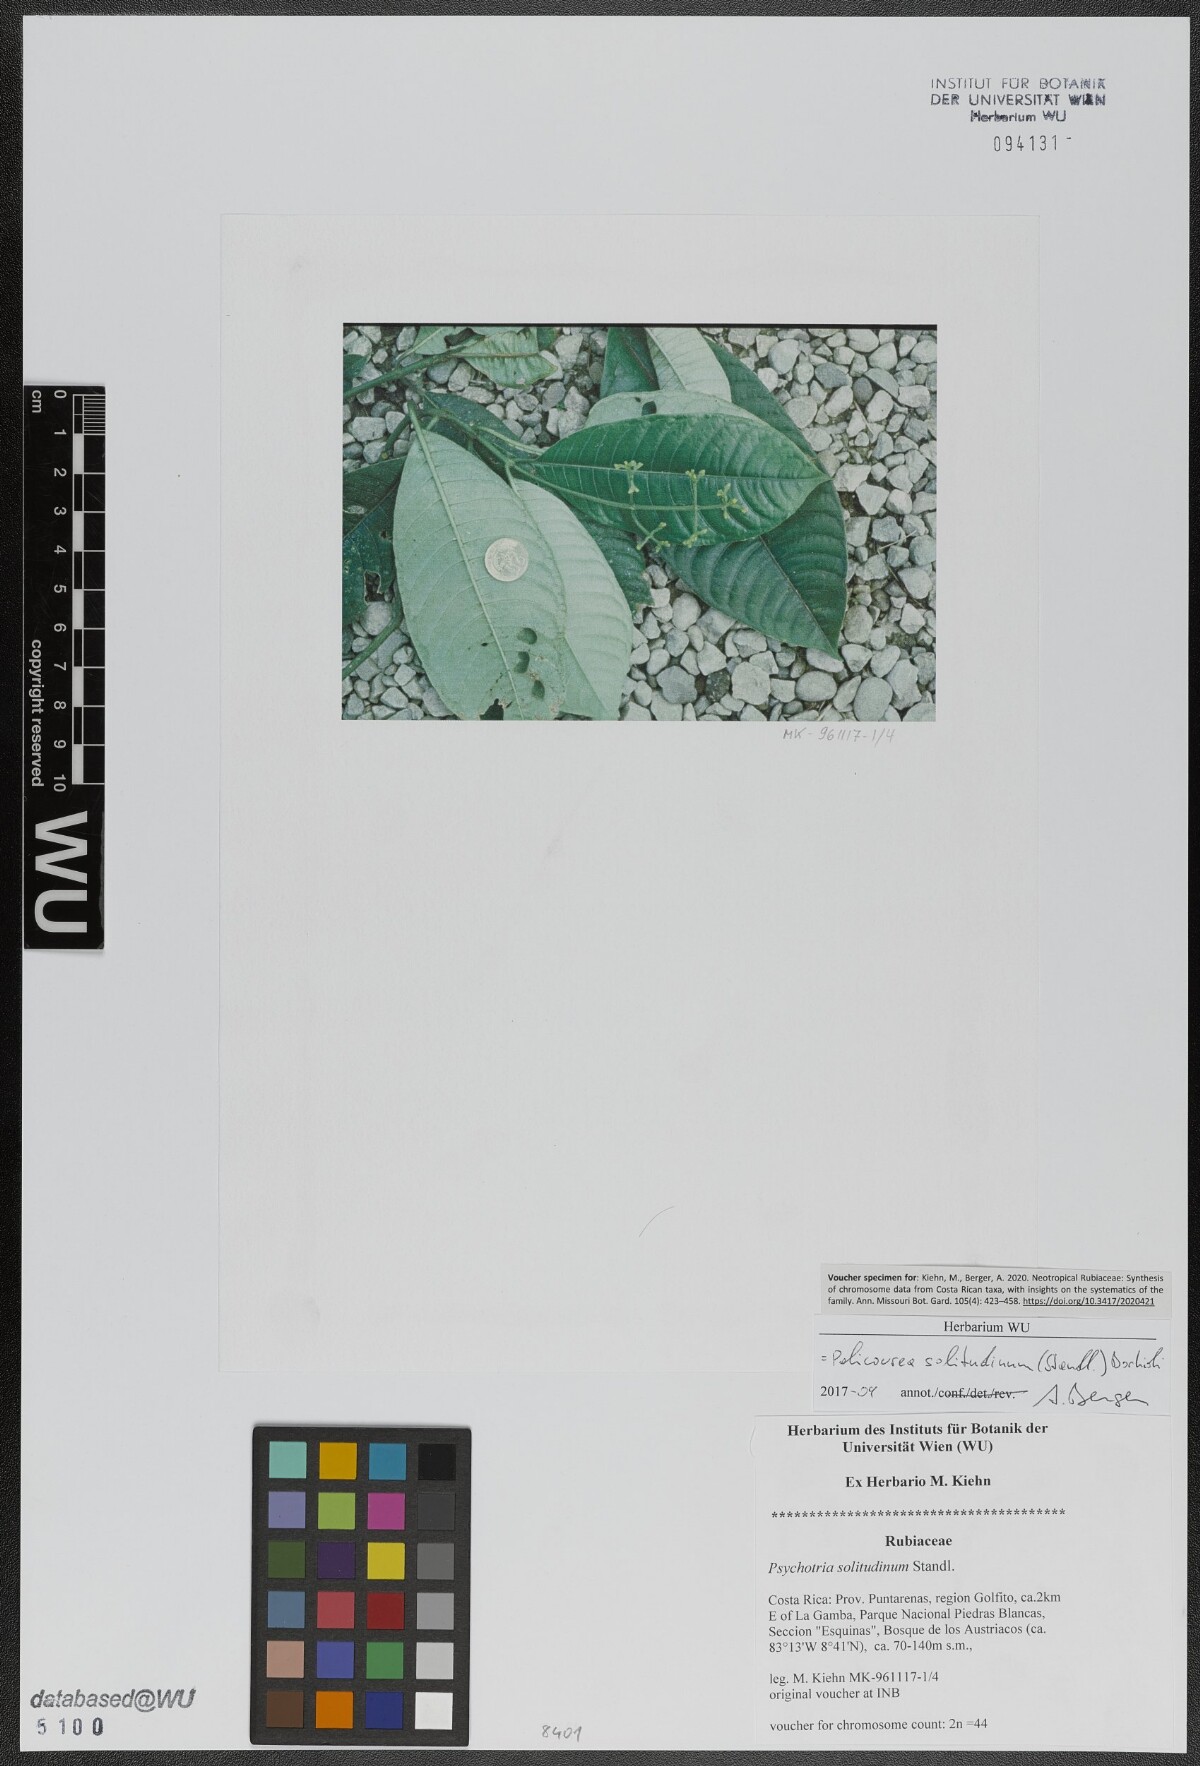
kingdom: Plantae
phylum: Tracheophyta
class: Magnoliopsida
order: Gentianales
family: Rubiaceae
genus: Palicourea
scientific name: Palicourea solitudinum
